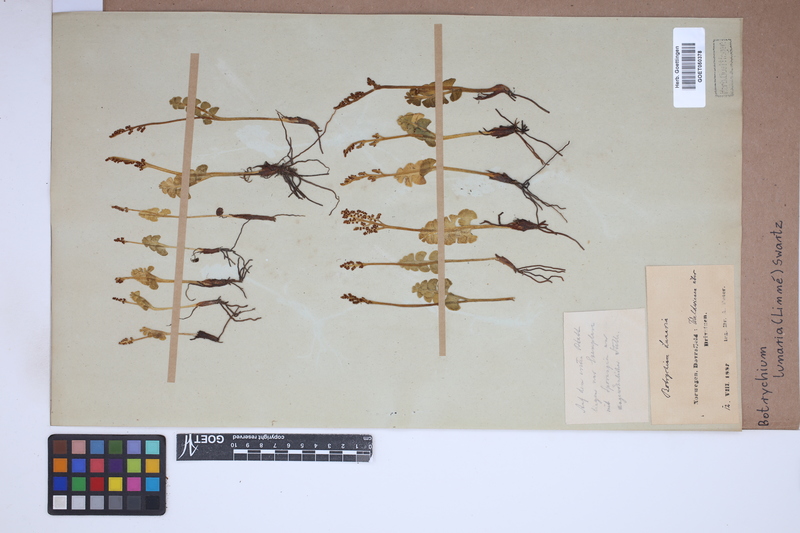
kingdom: Plantae
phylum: Tracheophyta
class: Polypodiopsida
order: Ophioglossales
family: Ophioglossaceae
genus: Botrychium
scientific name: Botrychium lunaria
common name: Moonwort
